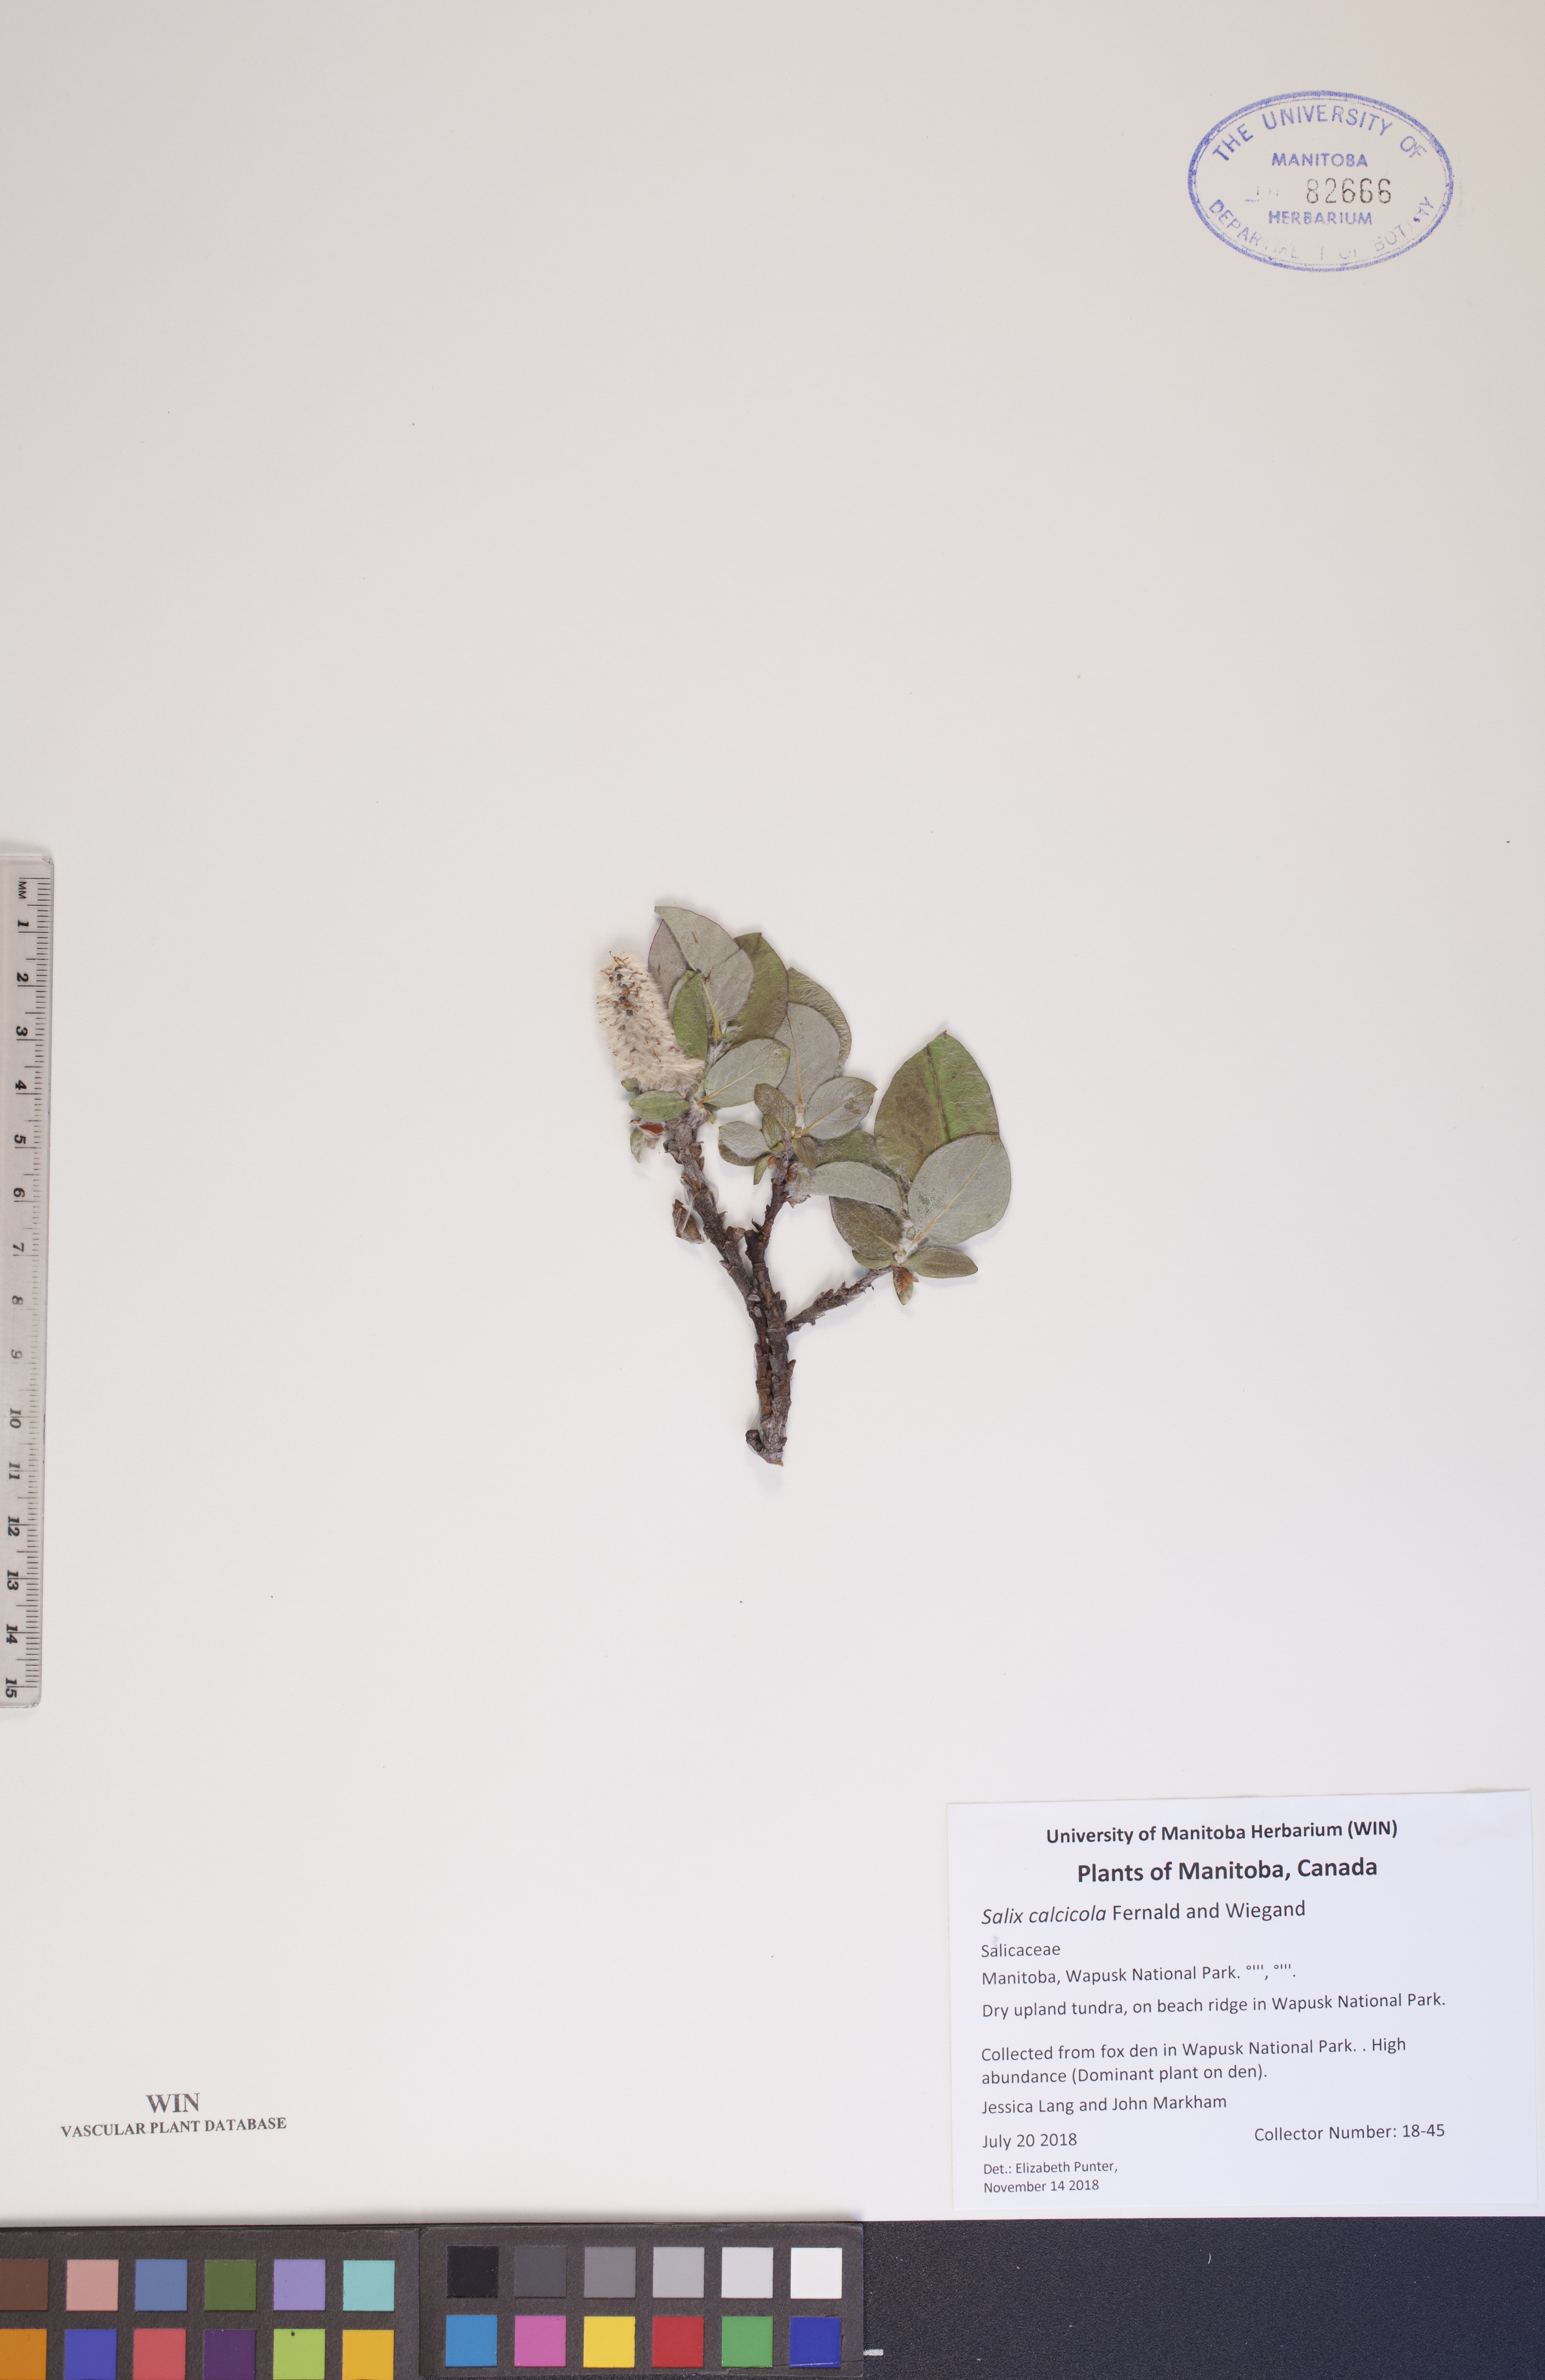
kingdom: Plantae
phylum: Tracheophyta
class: Magnoliopsida
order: Malpighiales
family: Salicaceae
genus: Salix
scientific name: Salix calcicola
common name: Calcareous willow
